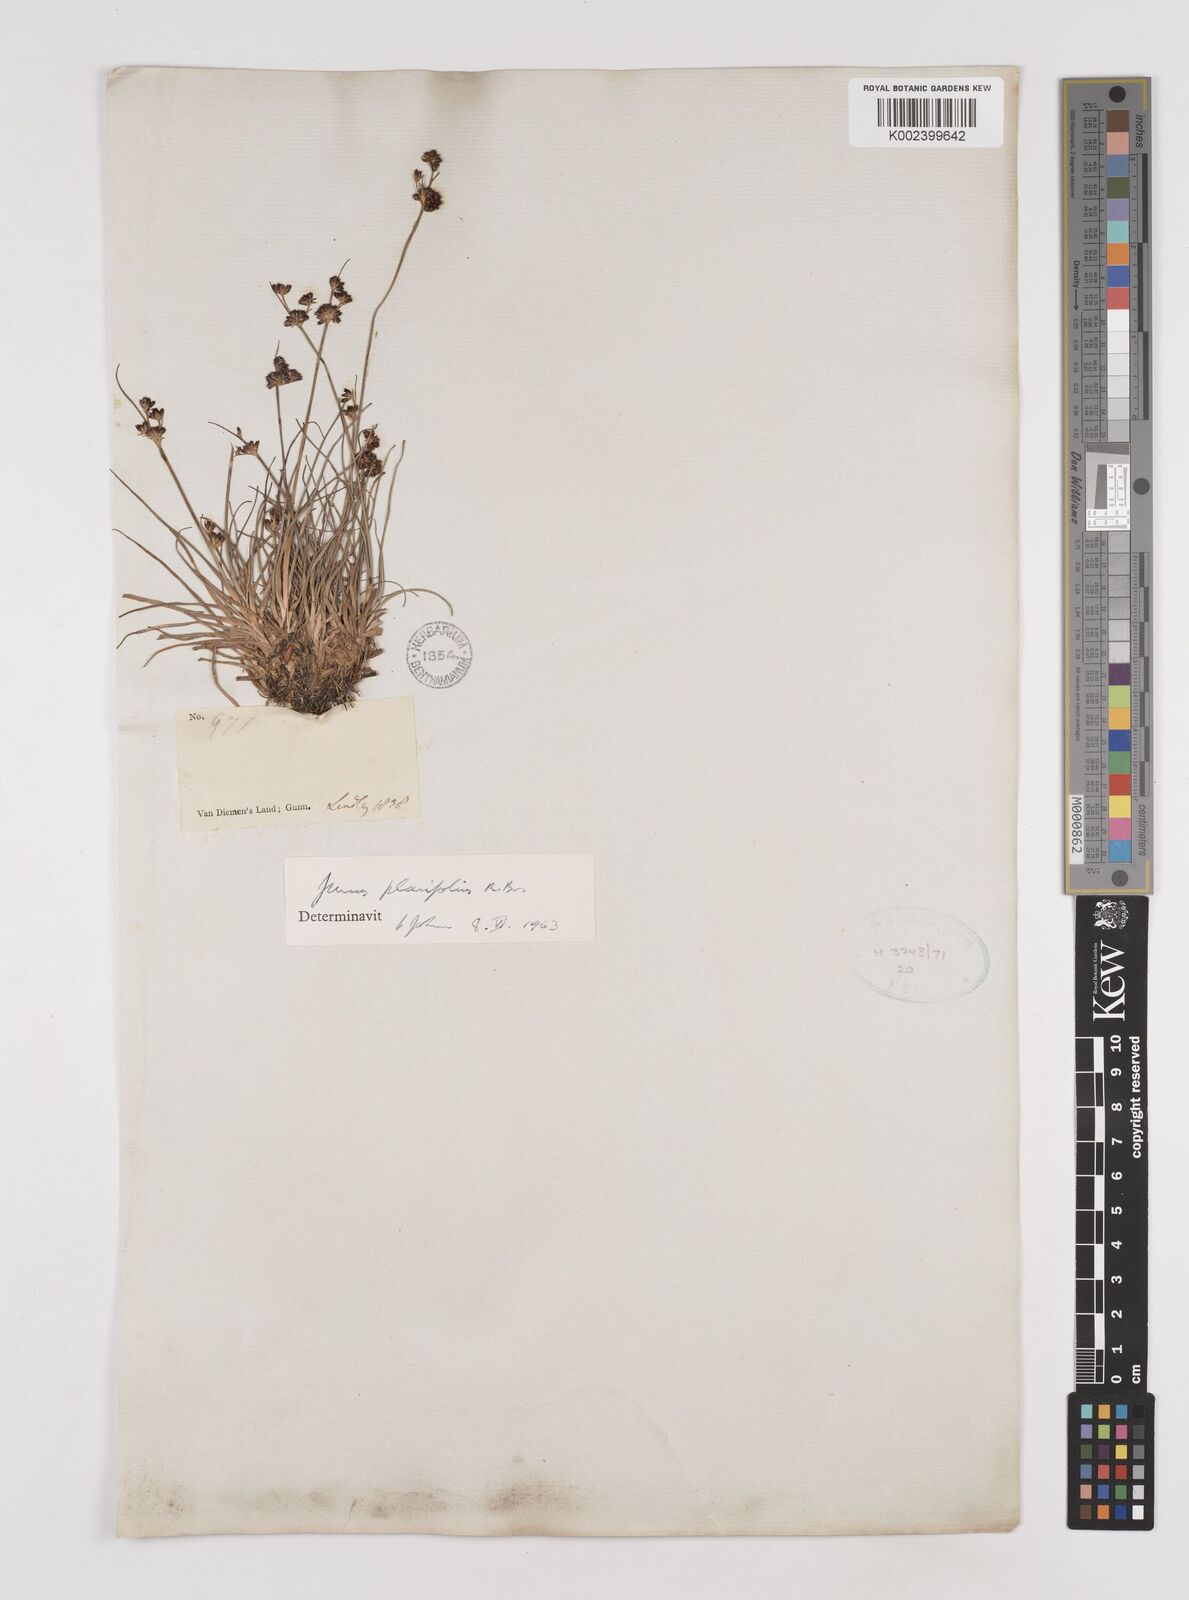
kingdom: Plantae
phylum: Tracheophyta
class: Liliopsida
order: Poales
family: Juncaceae
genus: Juncus
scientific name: Juncus planifolius
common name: Broadleaf rush
